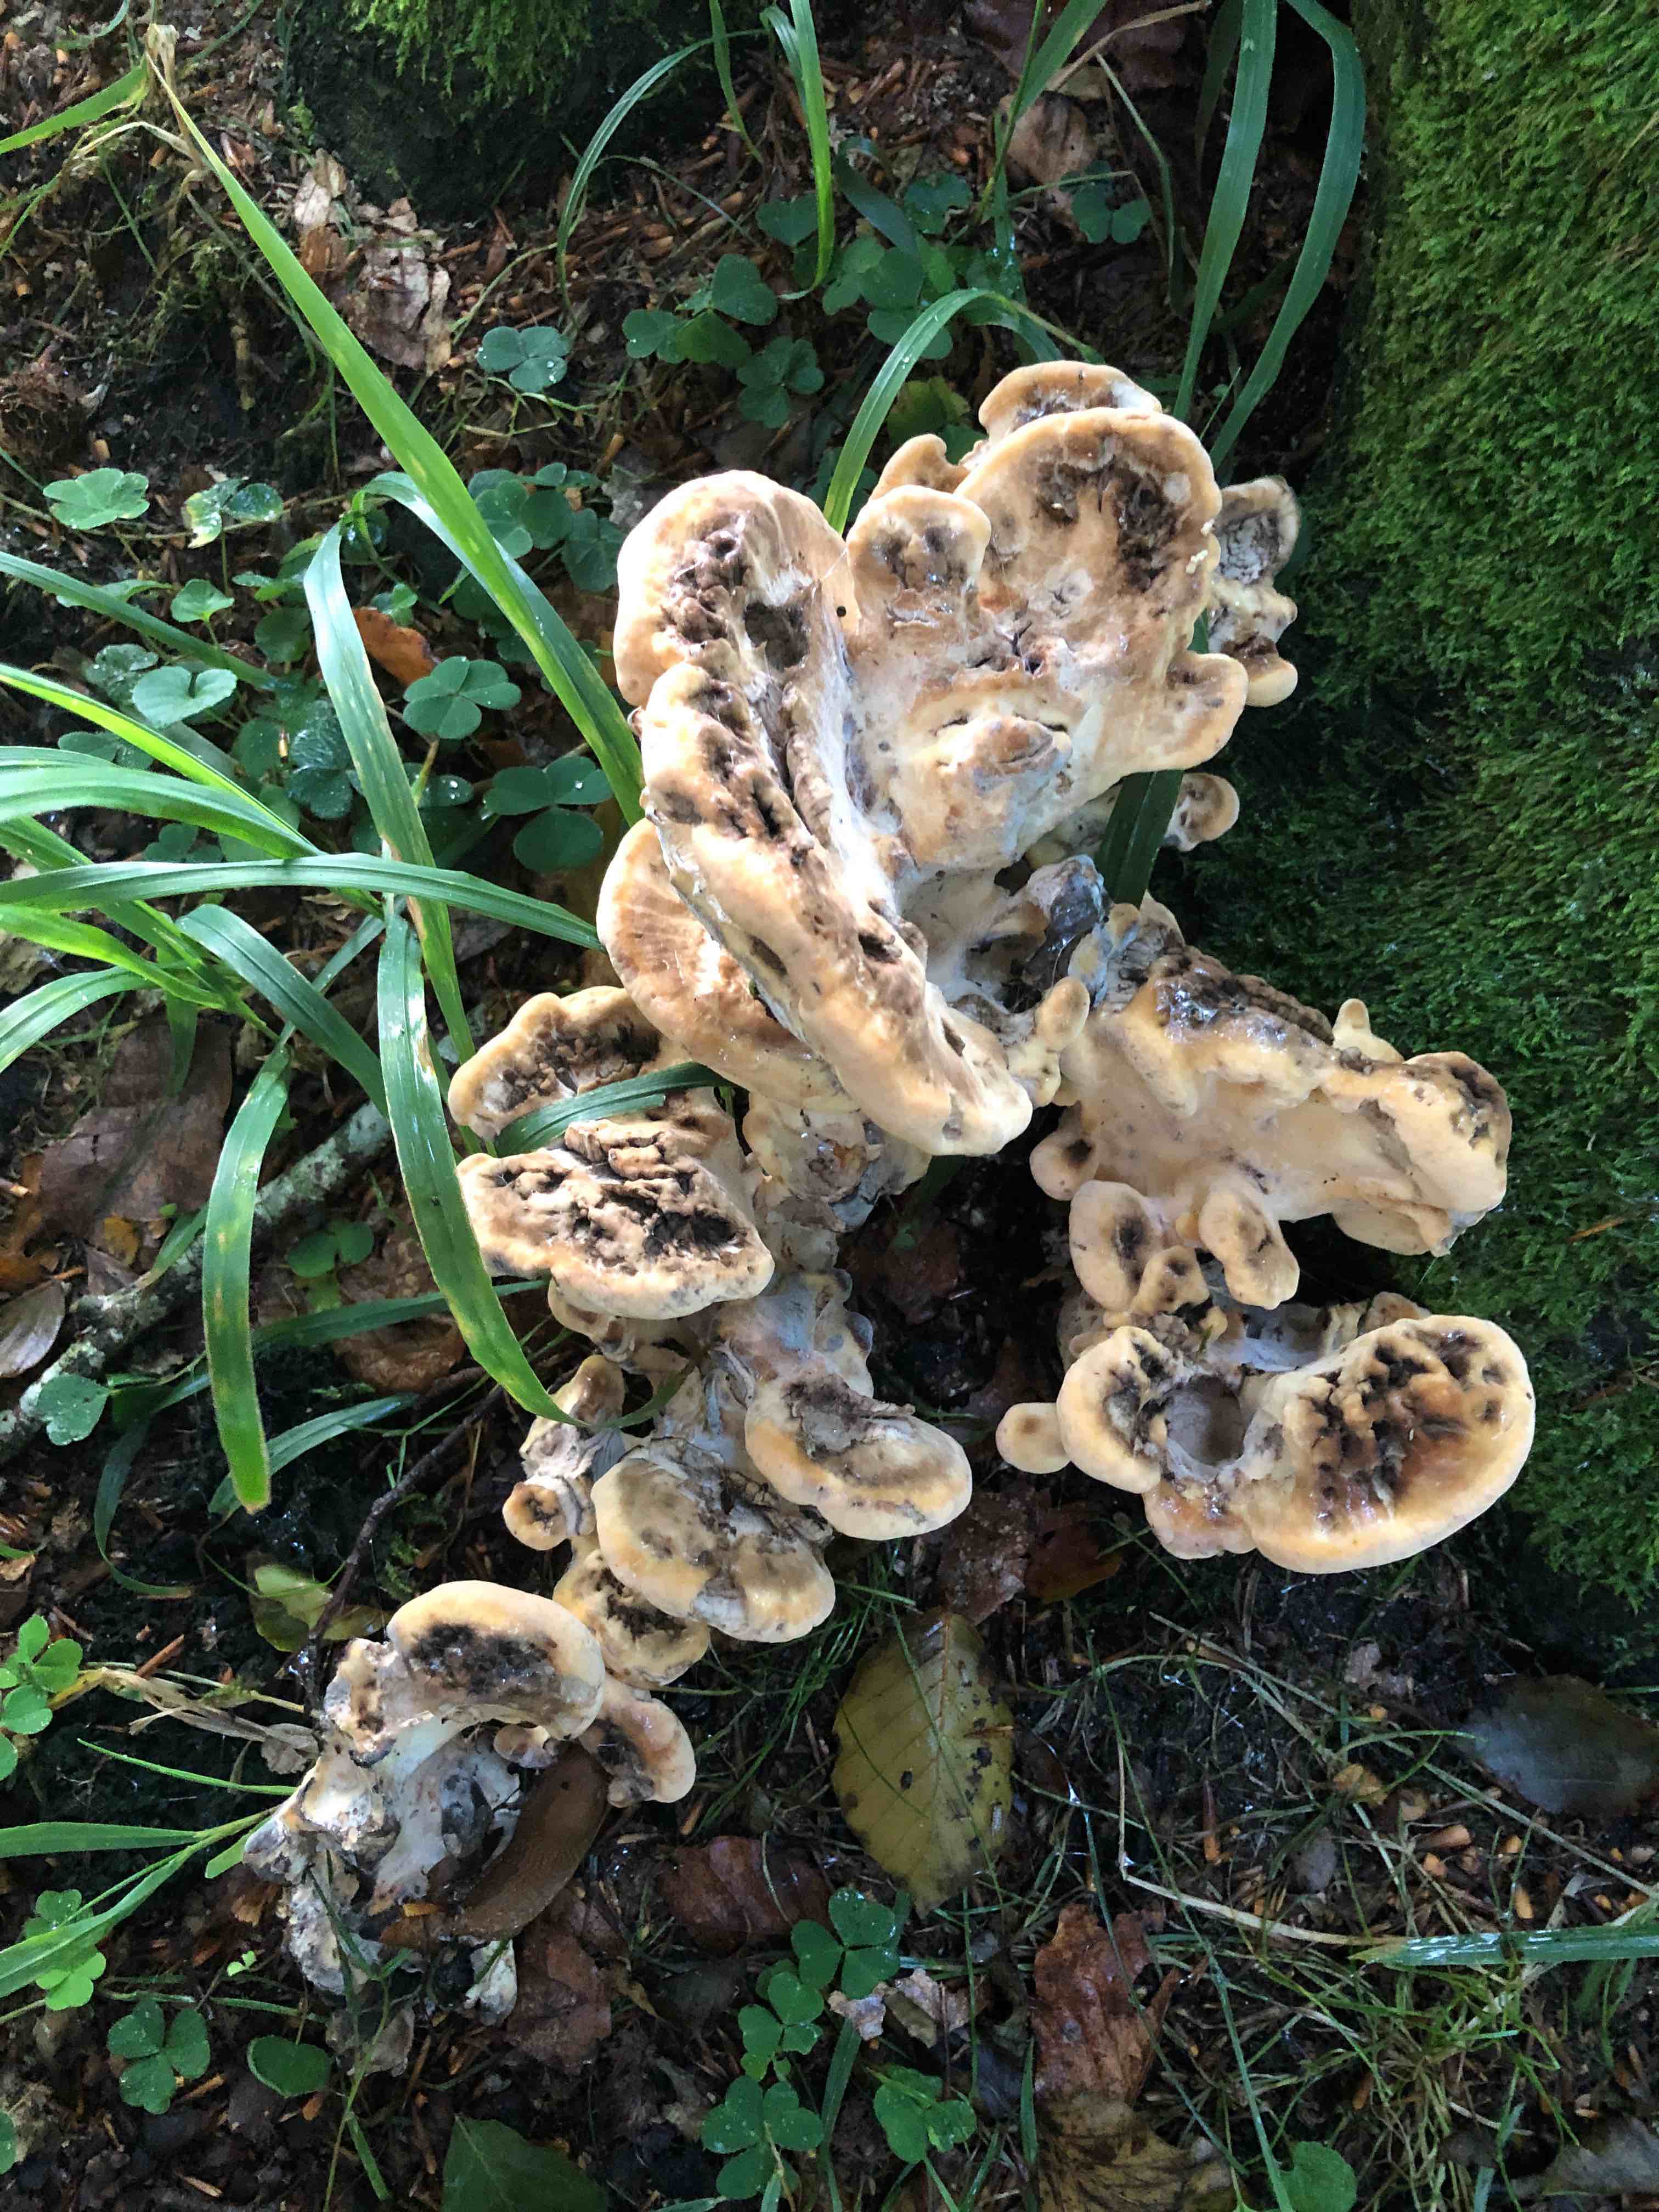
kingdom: Fungi
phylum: Basidiomycota
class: Agaricomycetes
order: Polyporales
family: Meripilaceae
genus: Meripilus
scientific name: Meripilus giganteus
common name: kæmpeporesvamp
